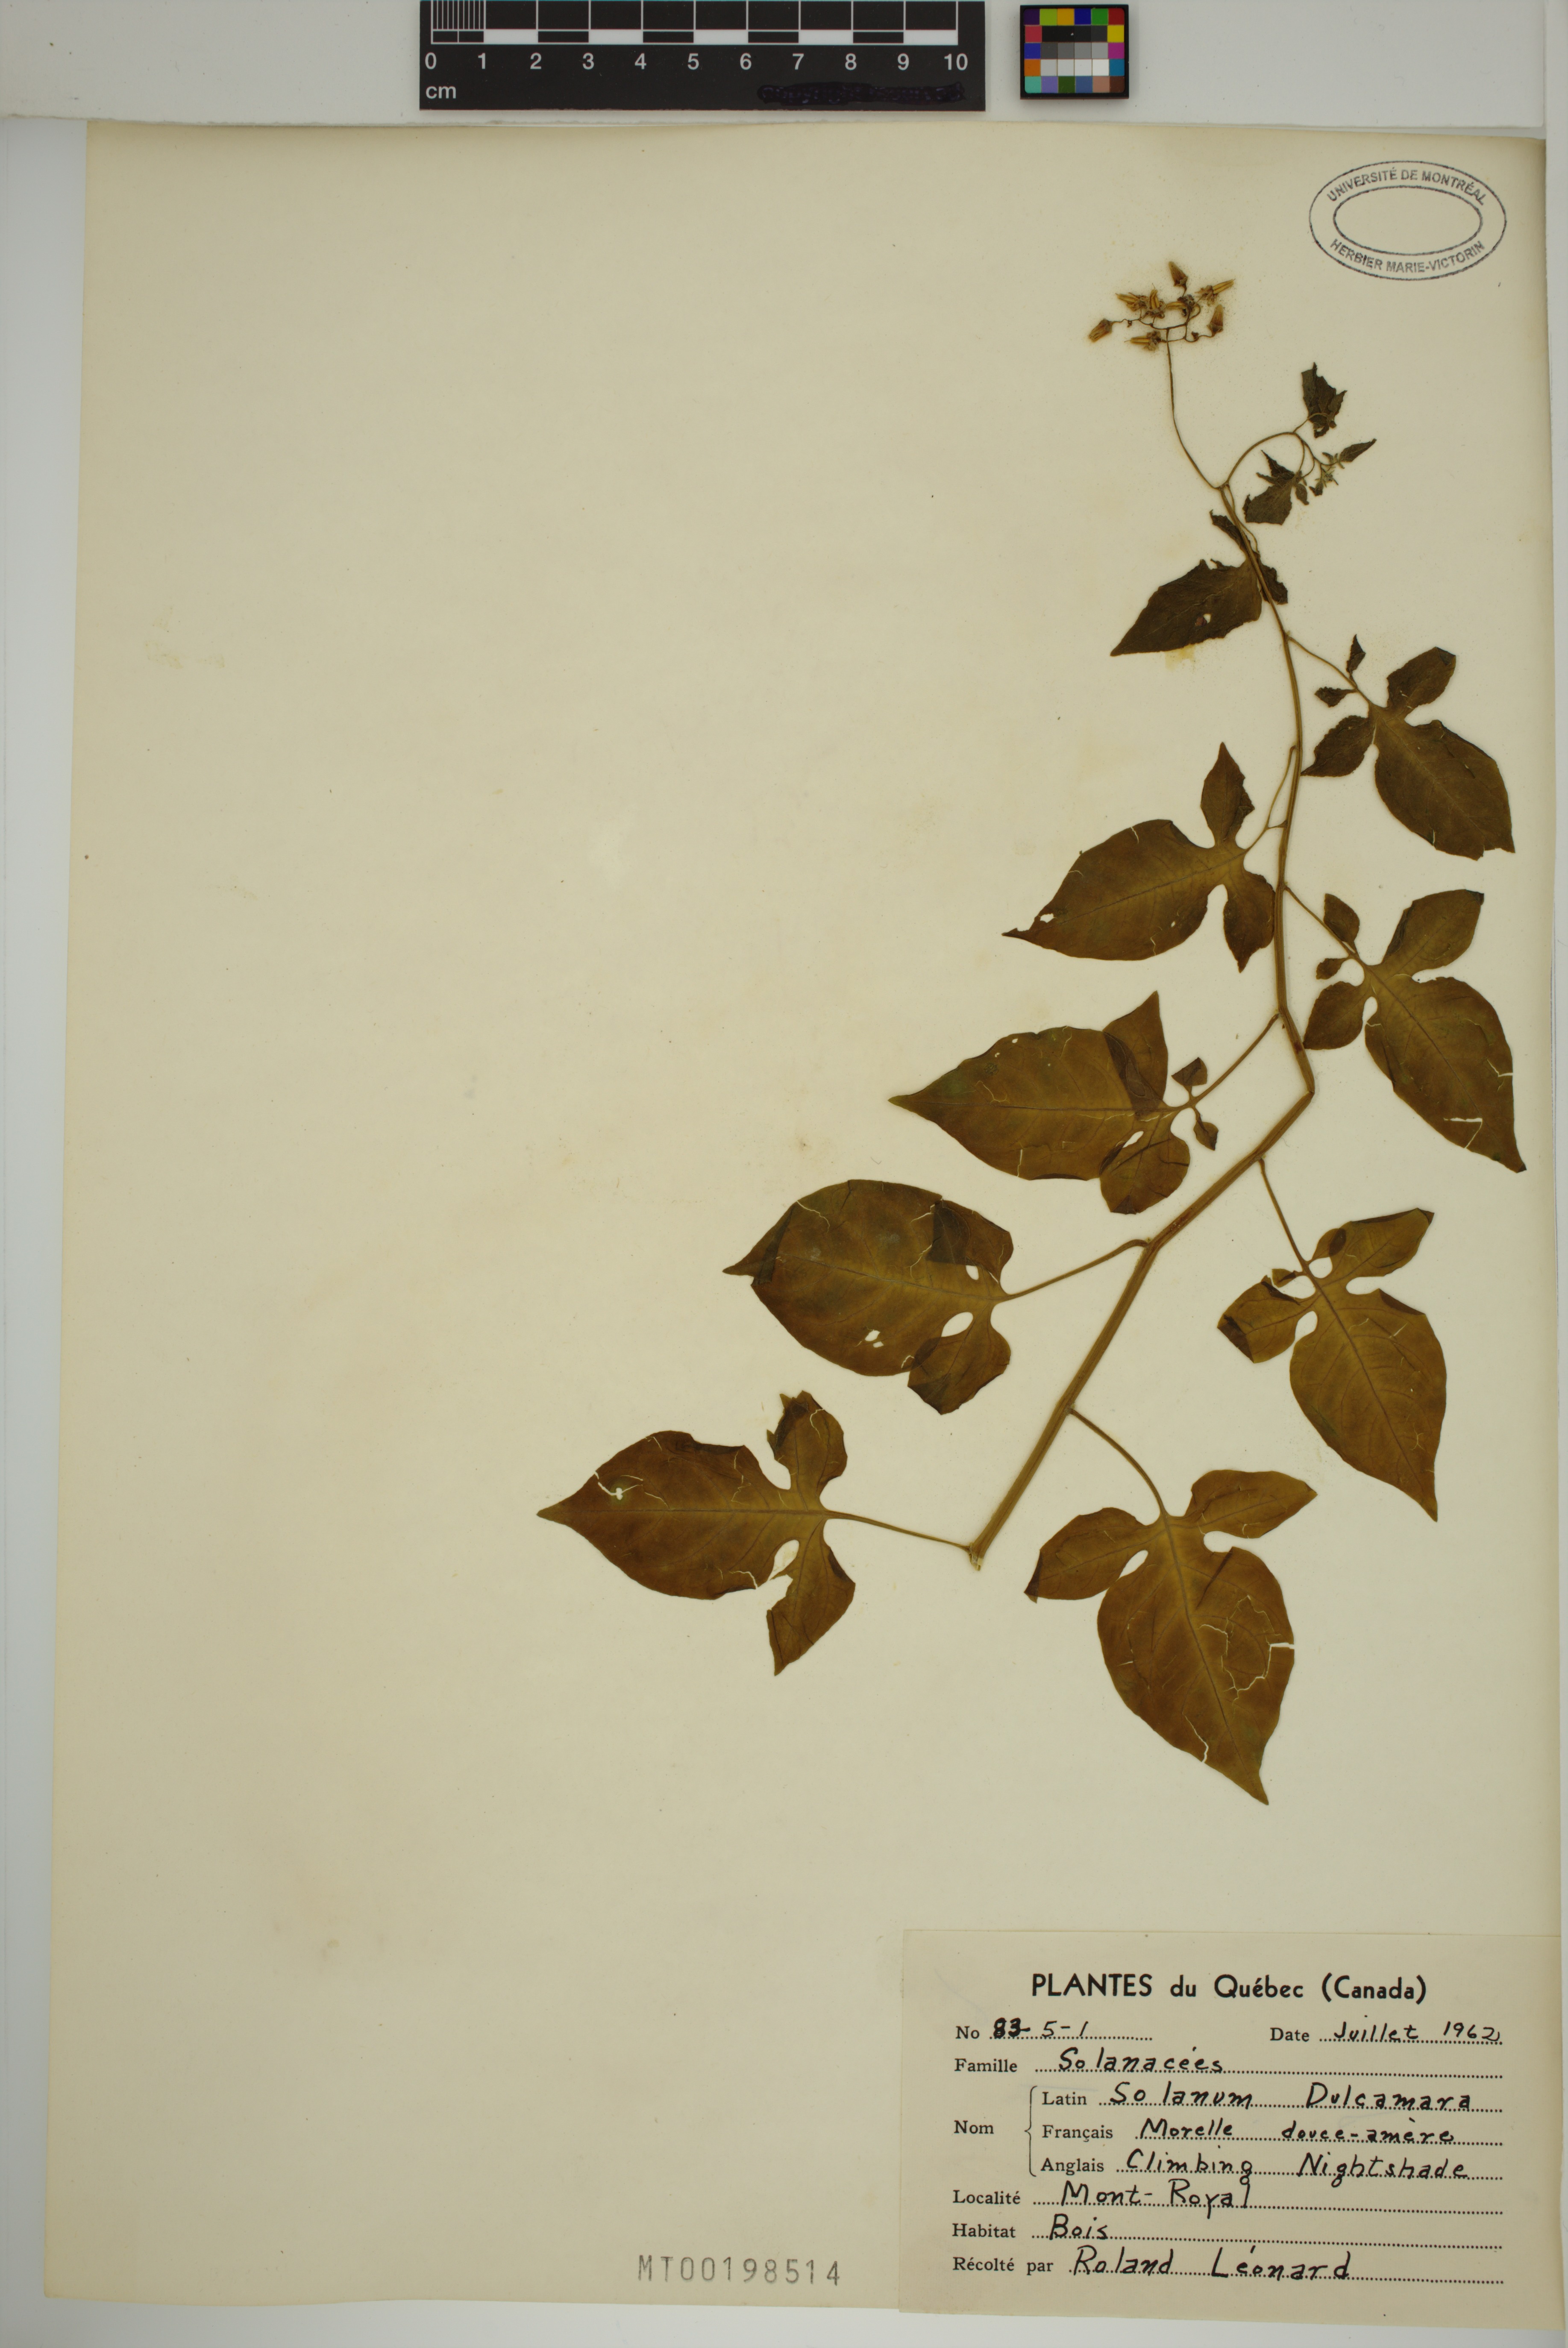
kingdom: Plantae
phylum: Tracheophyta
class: Magnoliopsida
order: Solanales
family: Solanaceae
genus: Solanum
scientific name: Solanum dulcamara
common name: Climbing nightshade
